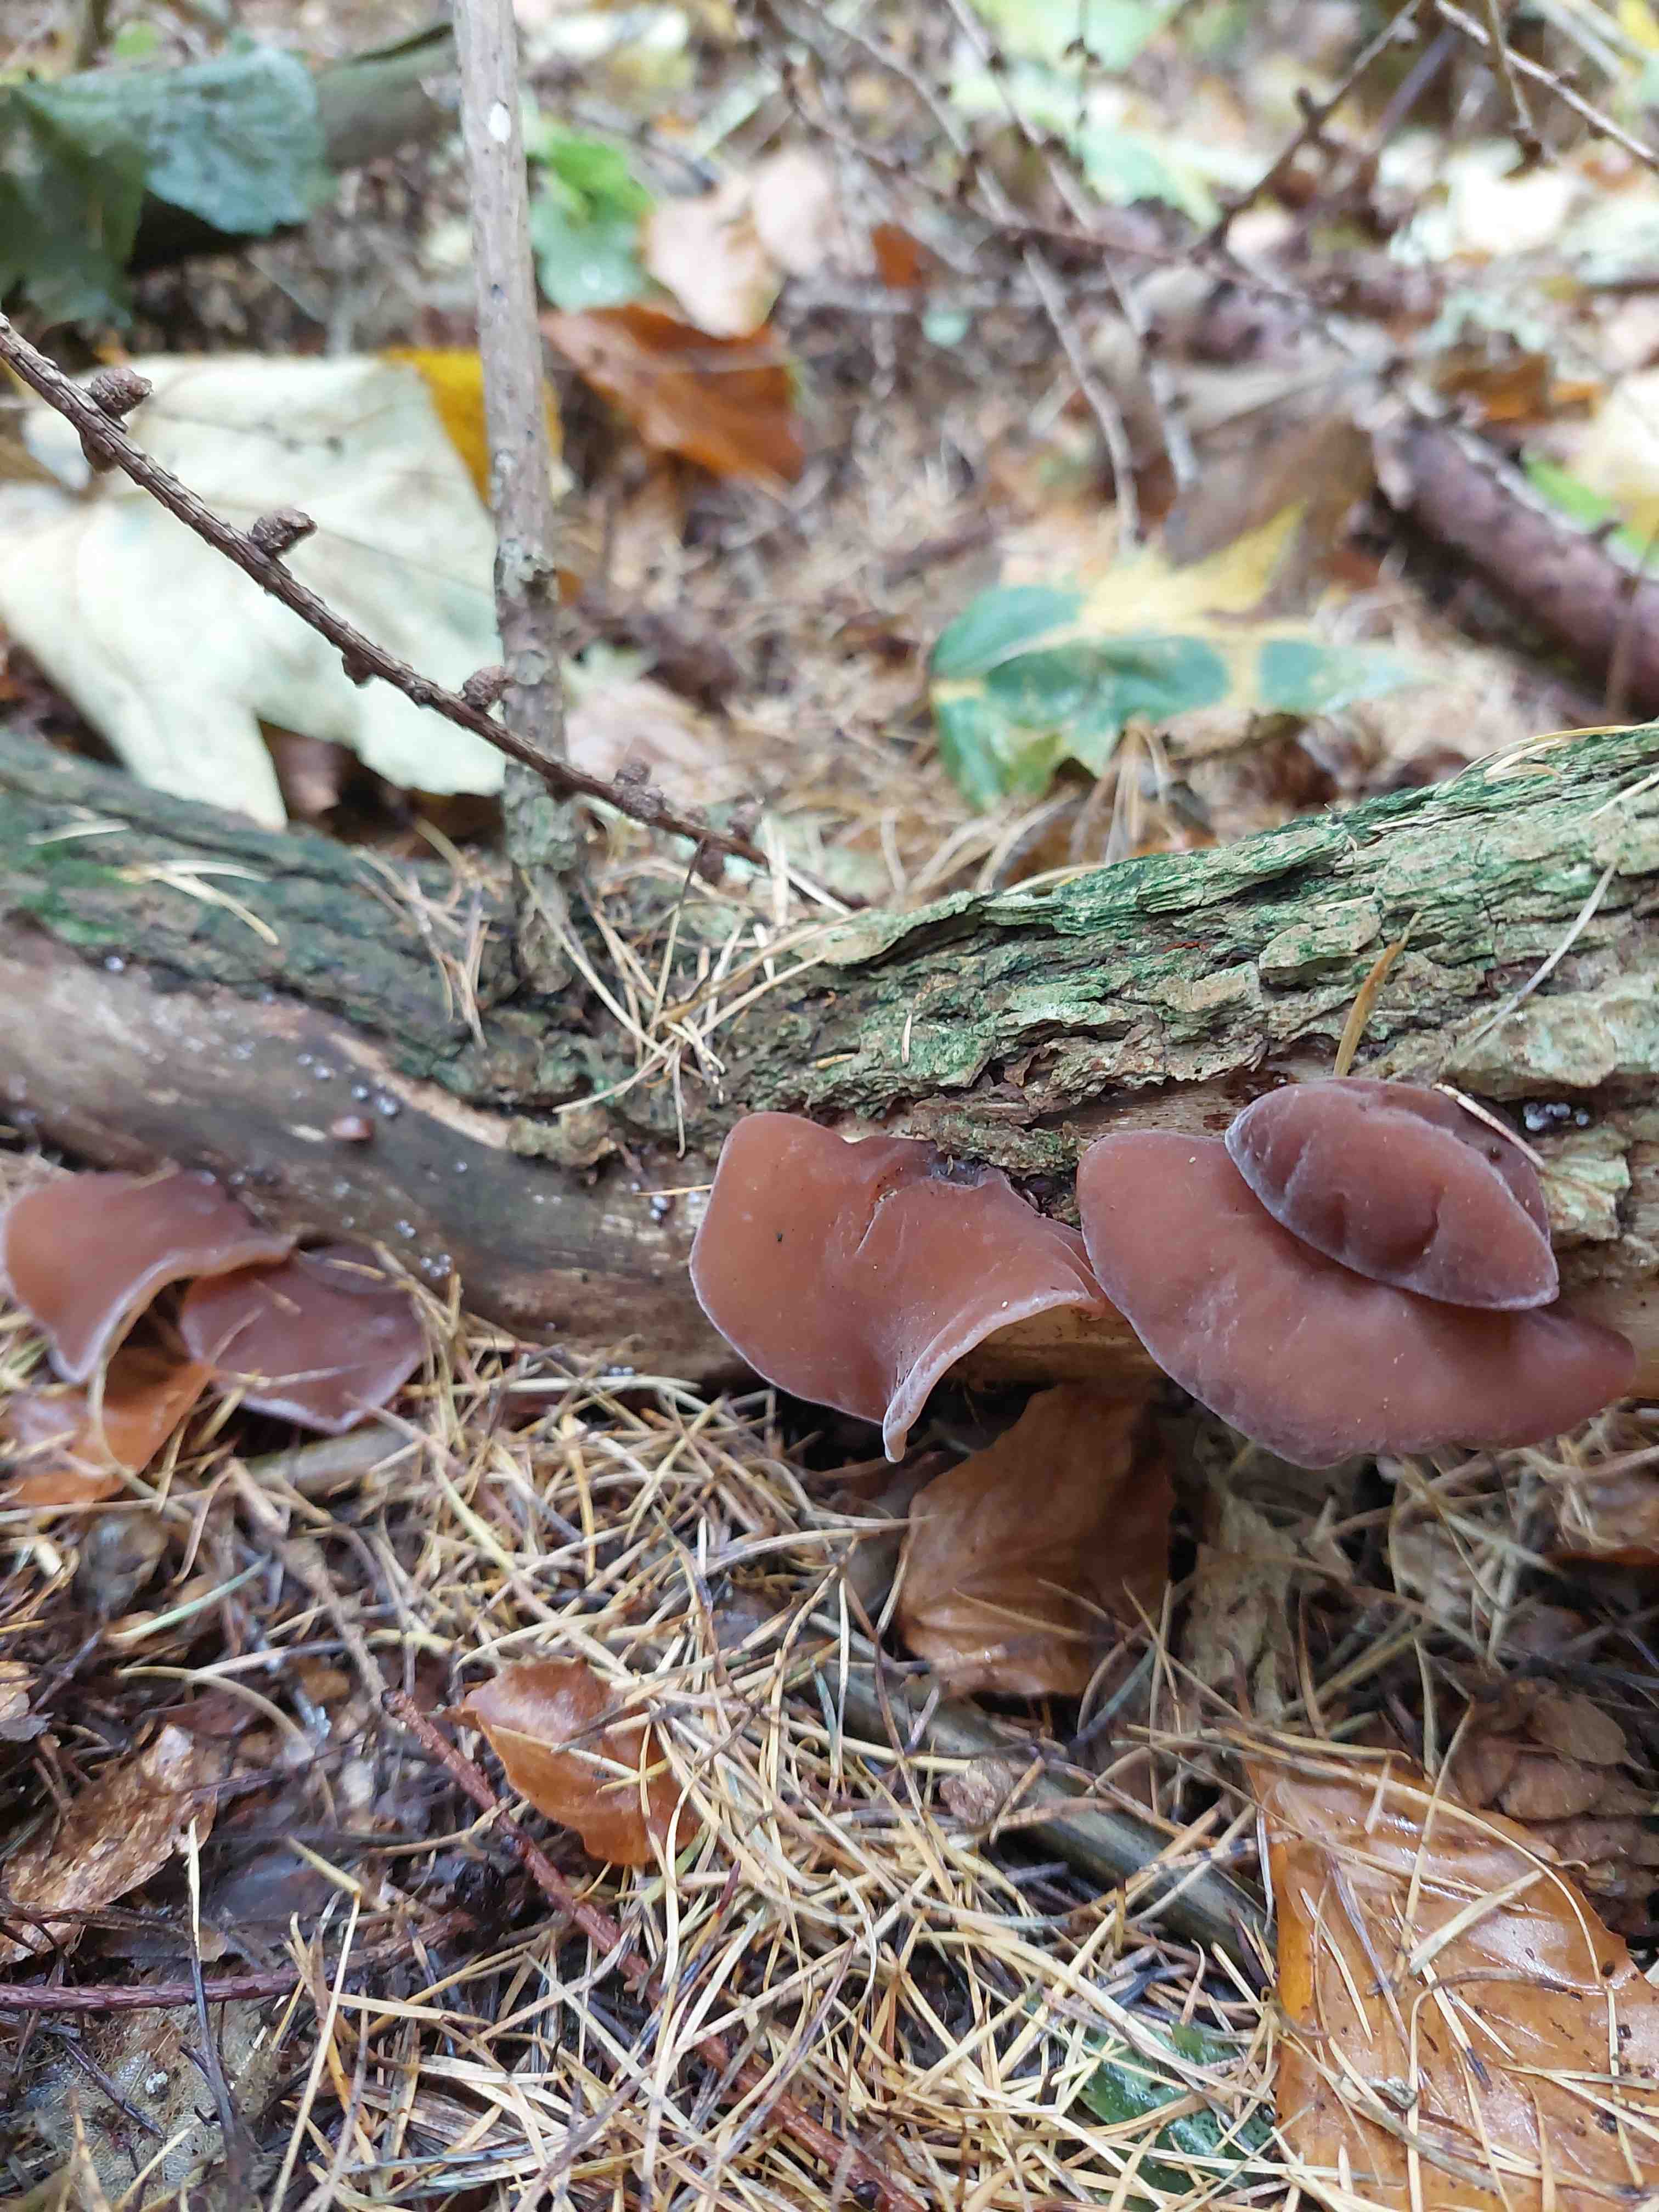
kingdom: Fungi
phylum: Basidiomycota
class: Agaricomycetes
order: Auriculariales
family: Auriculariaceae
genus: Auricularia
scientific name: Auricularia auricula-judae
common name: almindelig judasøre
